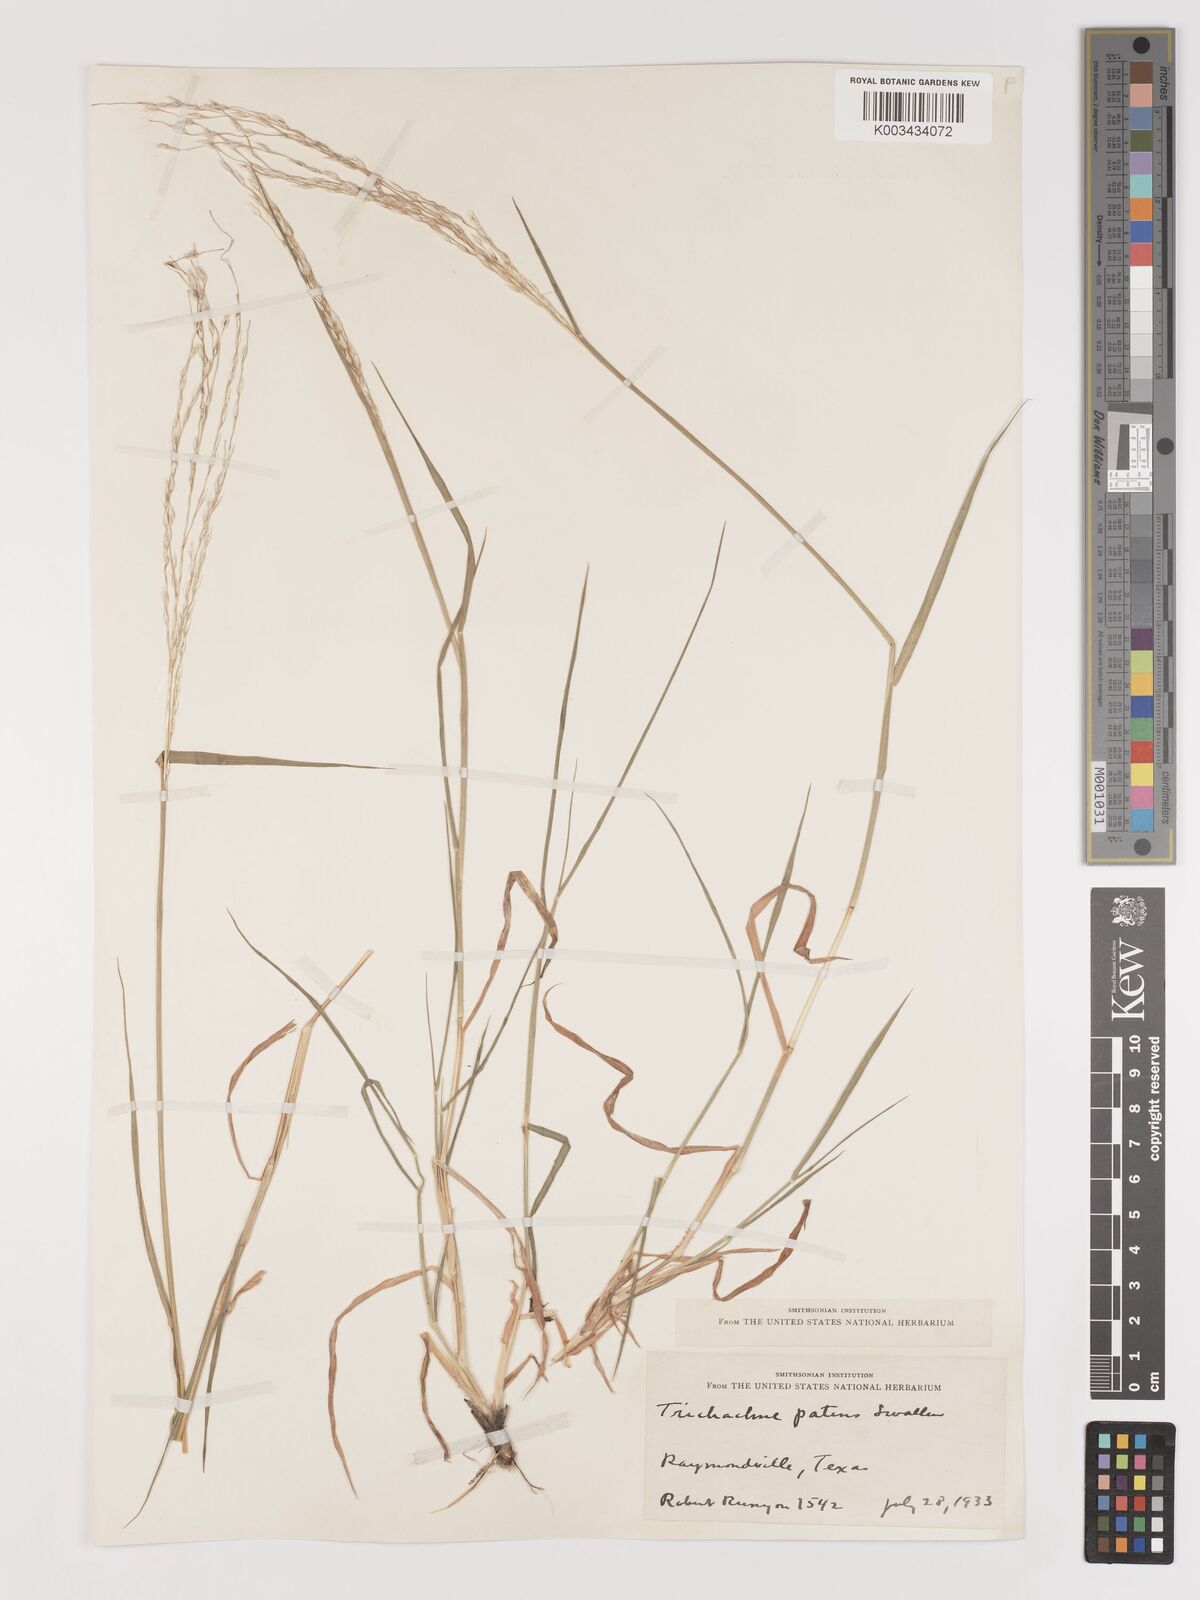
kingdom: Plantae
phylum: Tracheophyta
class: Liliopsida
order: Poales
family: Poaceae
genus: Digitaria
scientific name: Digitaria californica
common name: Arizona cottontop
